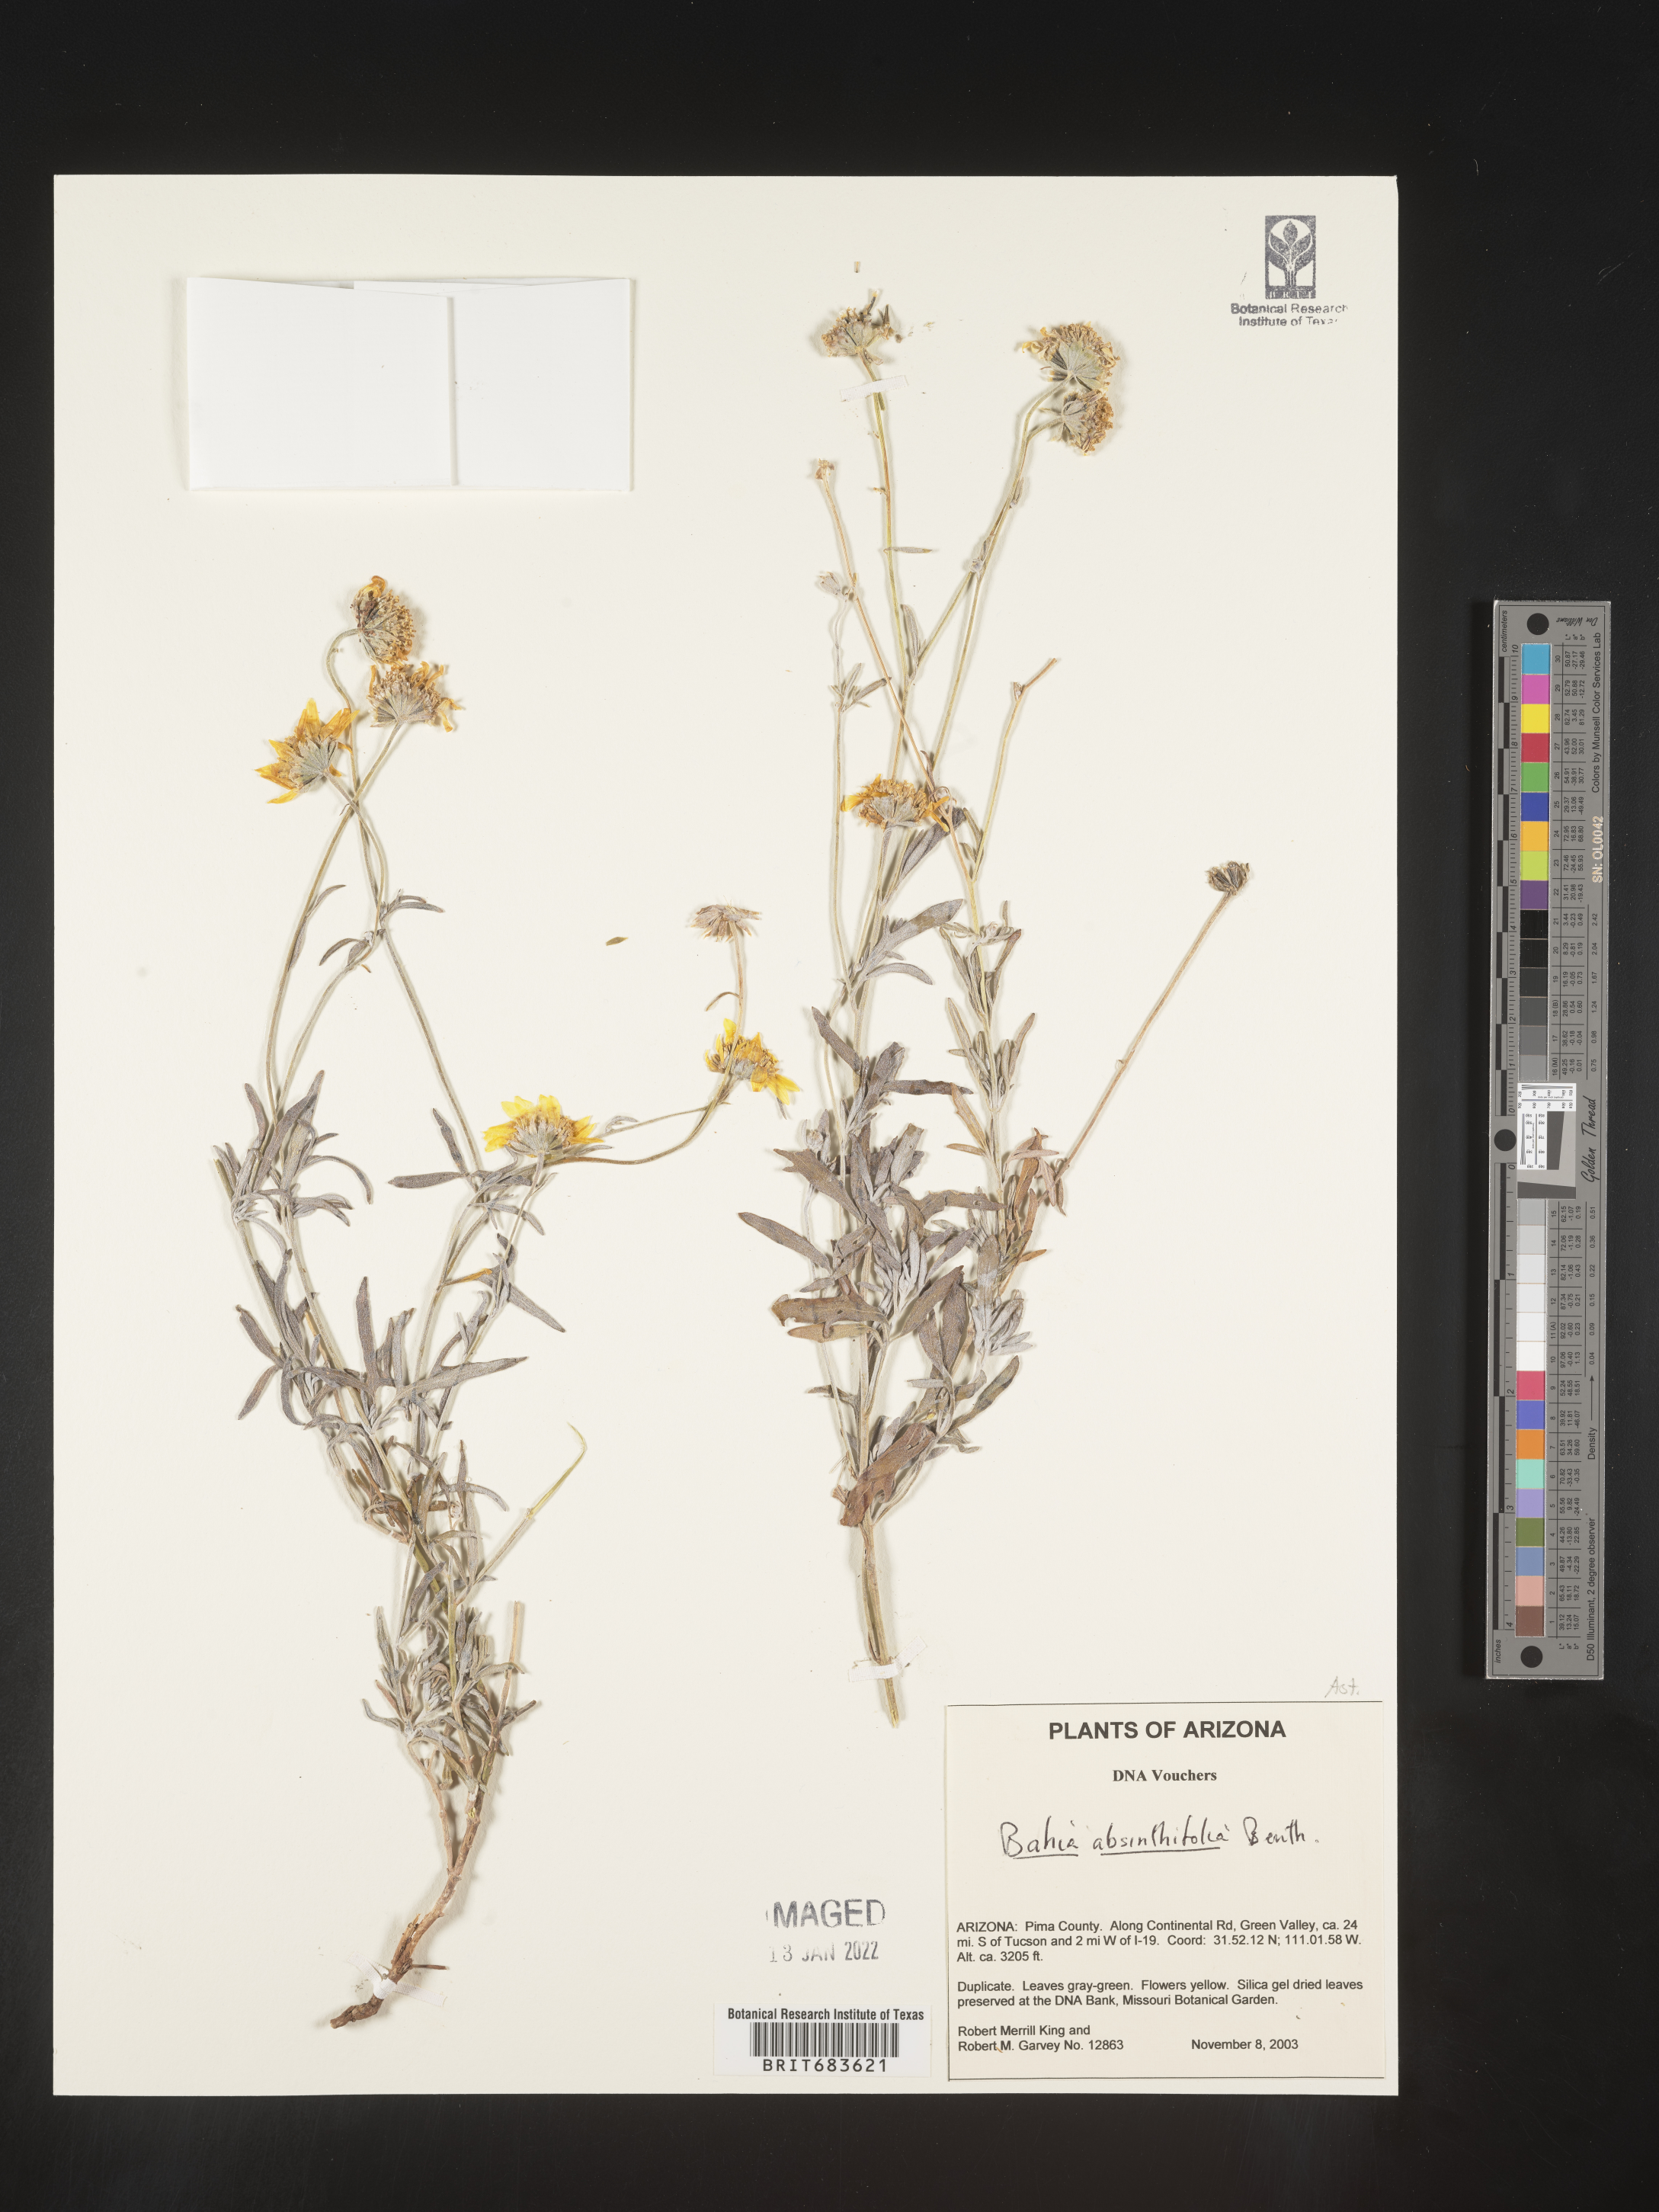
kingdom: Plantae
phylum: Tracheophyta
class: Magnoliopsida
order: Asterales
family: Asteraceae
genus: Picradeniopsis
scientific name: Picradeniopsis absinthifolia
